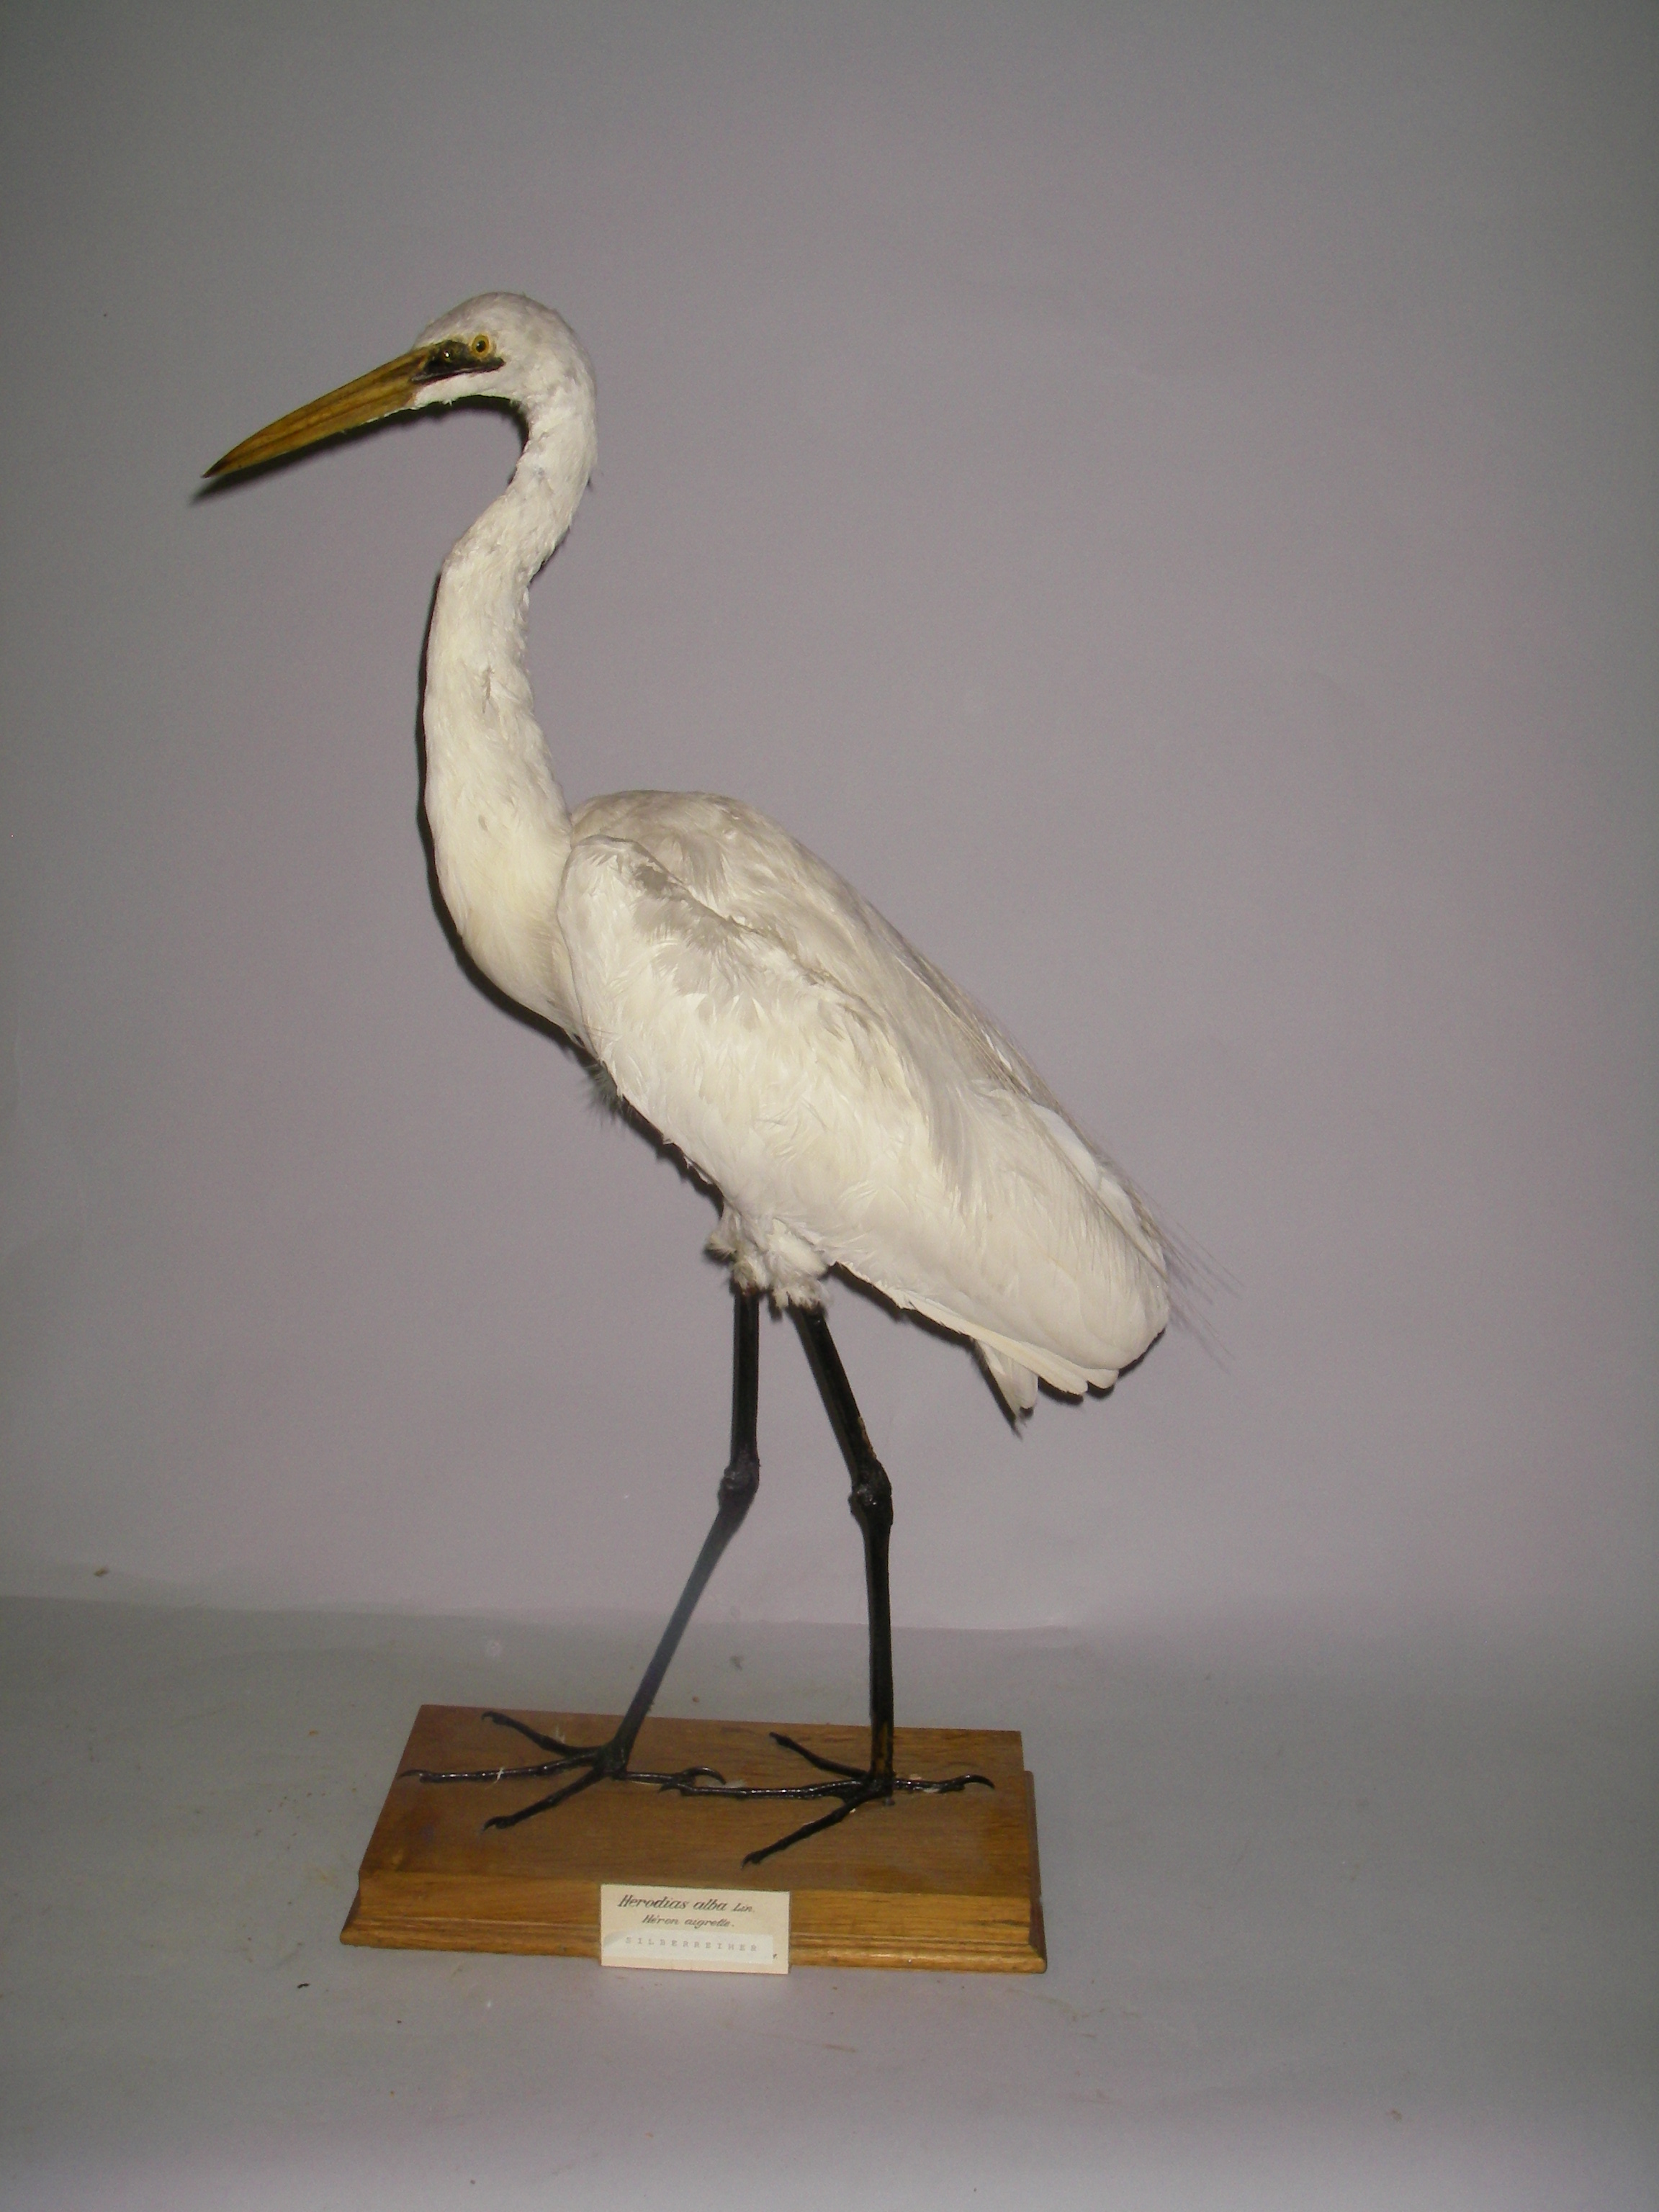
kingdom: Animalia
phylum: Chordata
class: Aves
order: Pelecaniformes
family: Ardeidae
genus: Ardea
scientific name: Ardea alba
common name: Great egret
